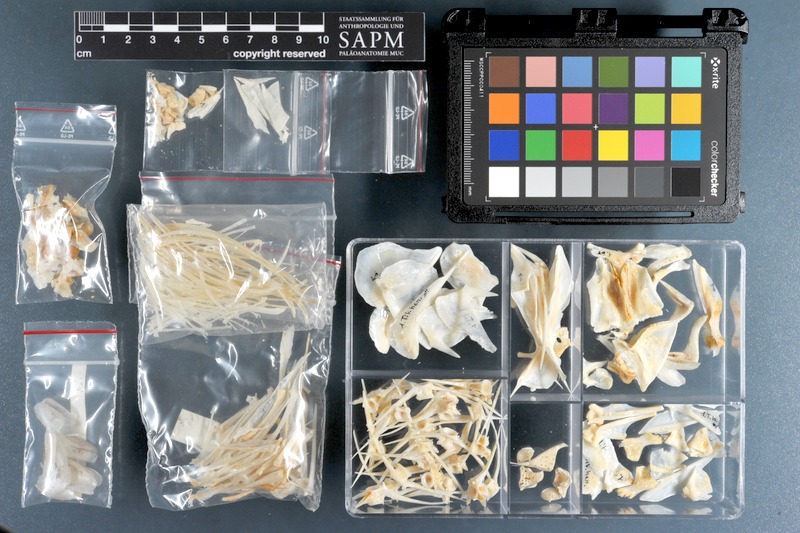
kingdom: Animalia
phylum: Chordata
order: Perciformes
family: Cichlidae
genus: Sarotherodon
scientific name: Sarotherodon melanotheron
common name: Blackchin tilapia
